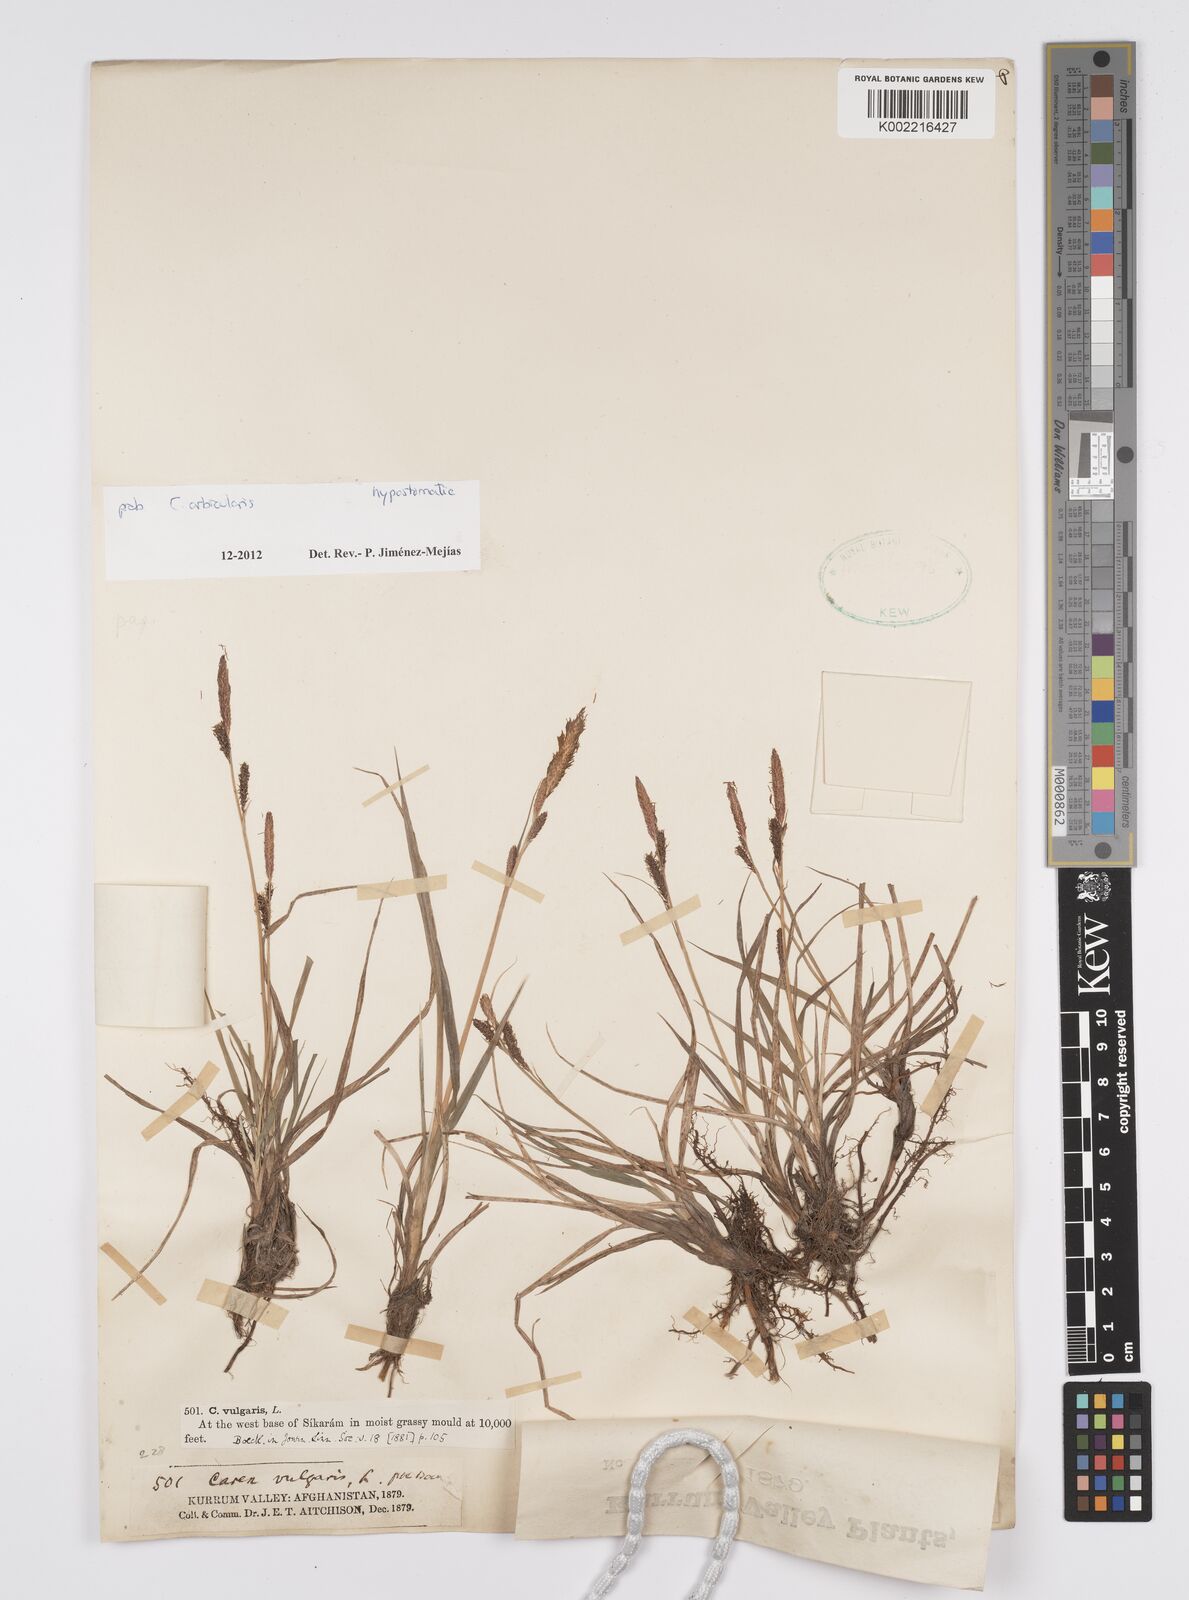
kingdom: Plantae
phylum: Tracheophyta
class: Liliopsida
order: Poales
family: Cyperaceae
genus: Carex
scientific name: Carex orbicularis
